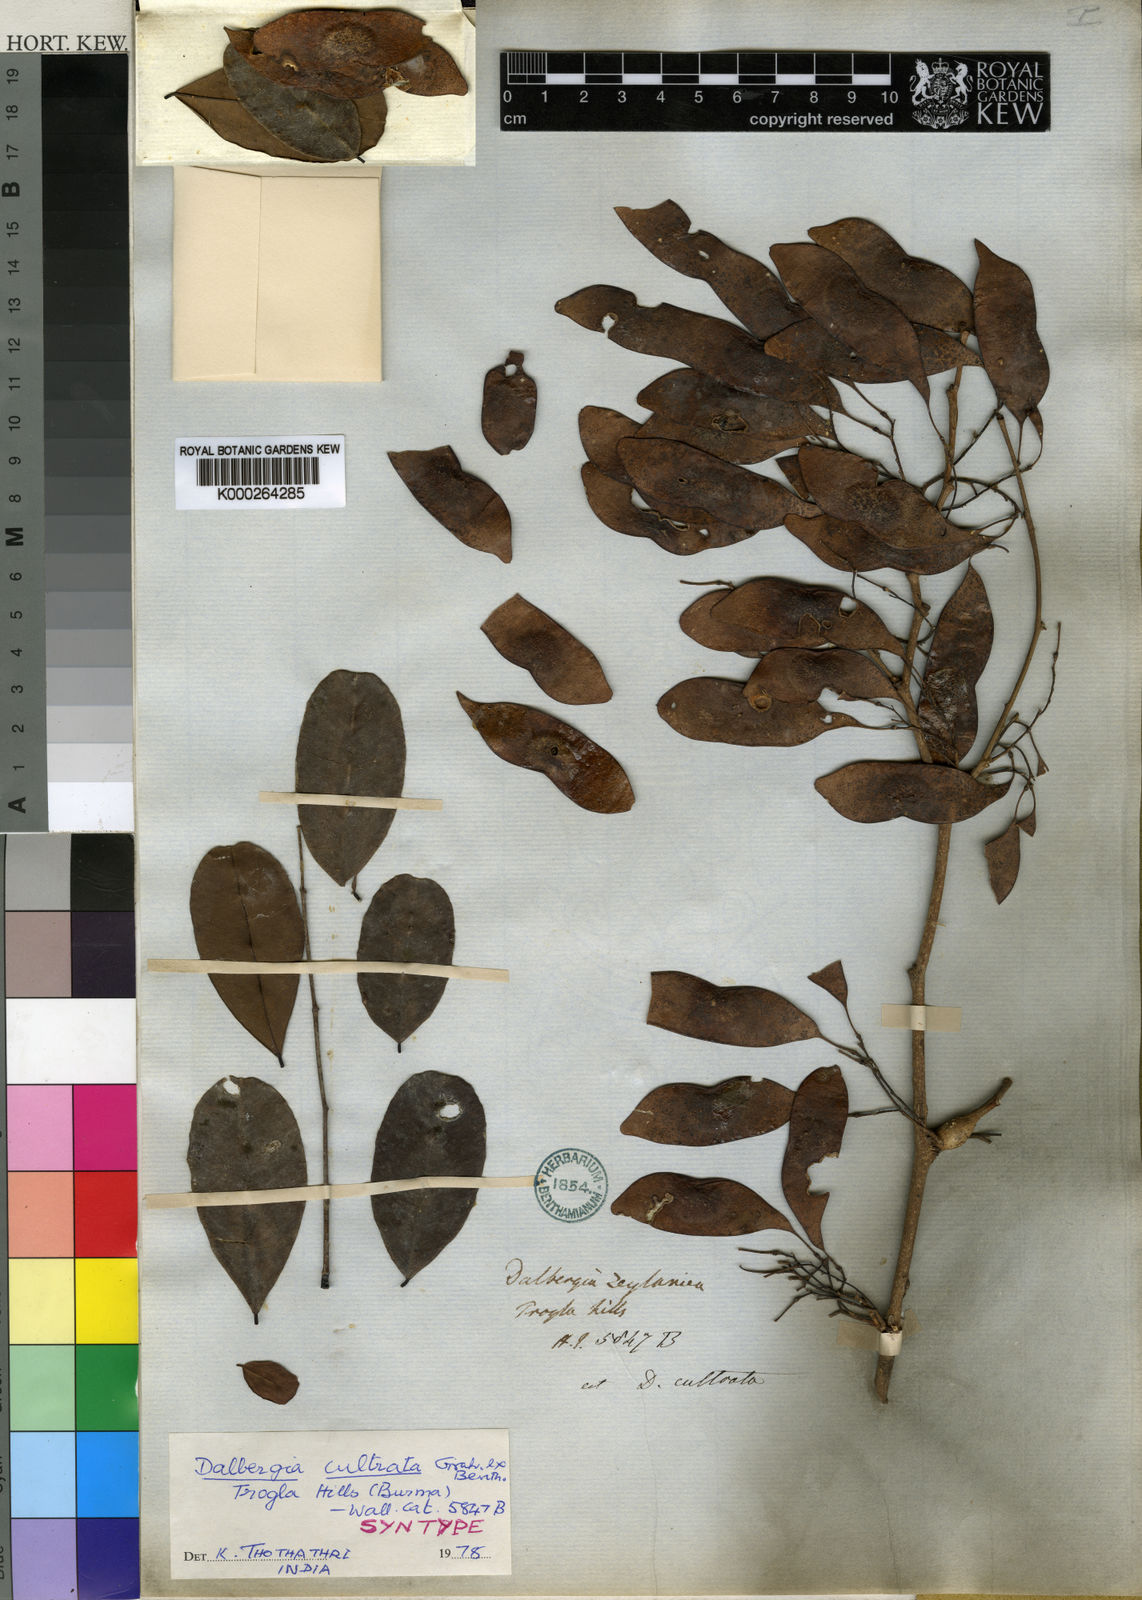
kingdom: Plantae
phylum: Tracheophyta
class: Magnoliopsida
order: Fabales
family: Fabaceae
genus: Dalbergia
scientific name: Dalbergia
